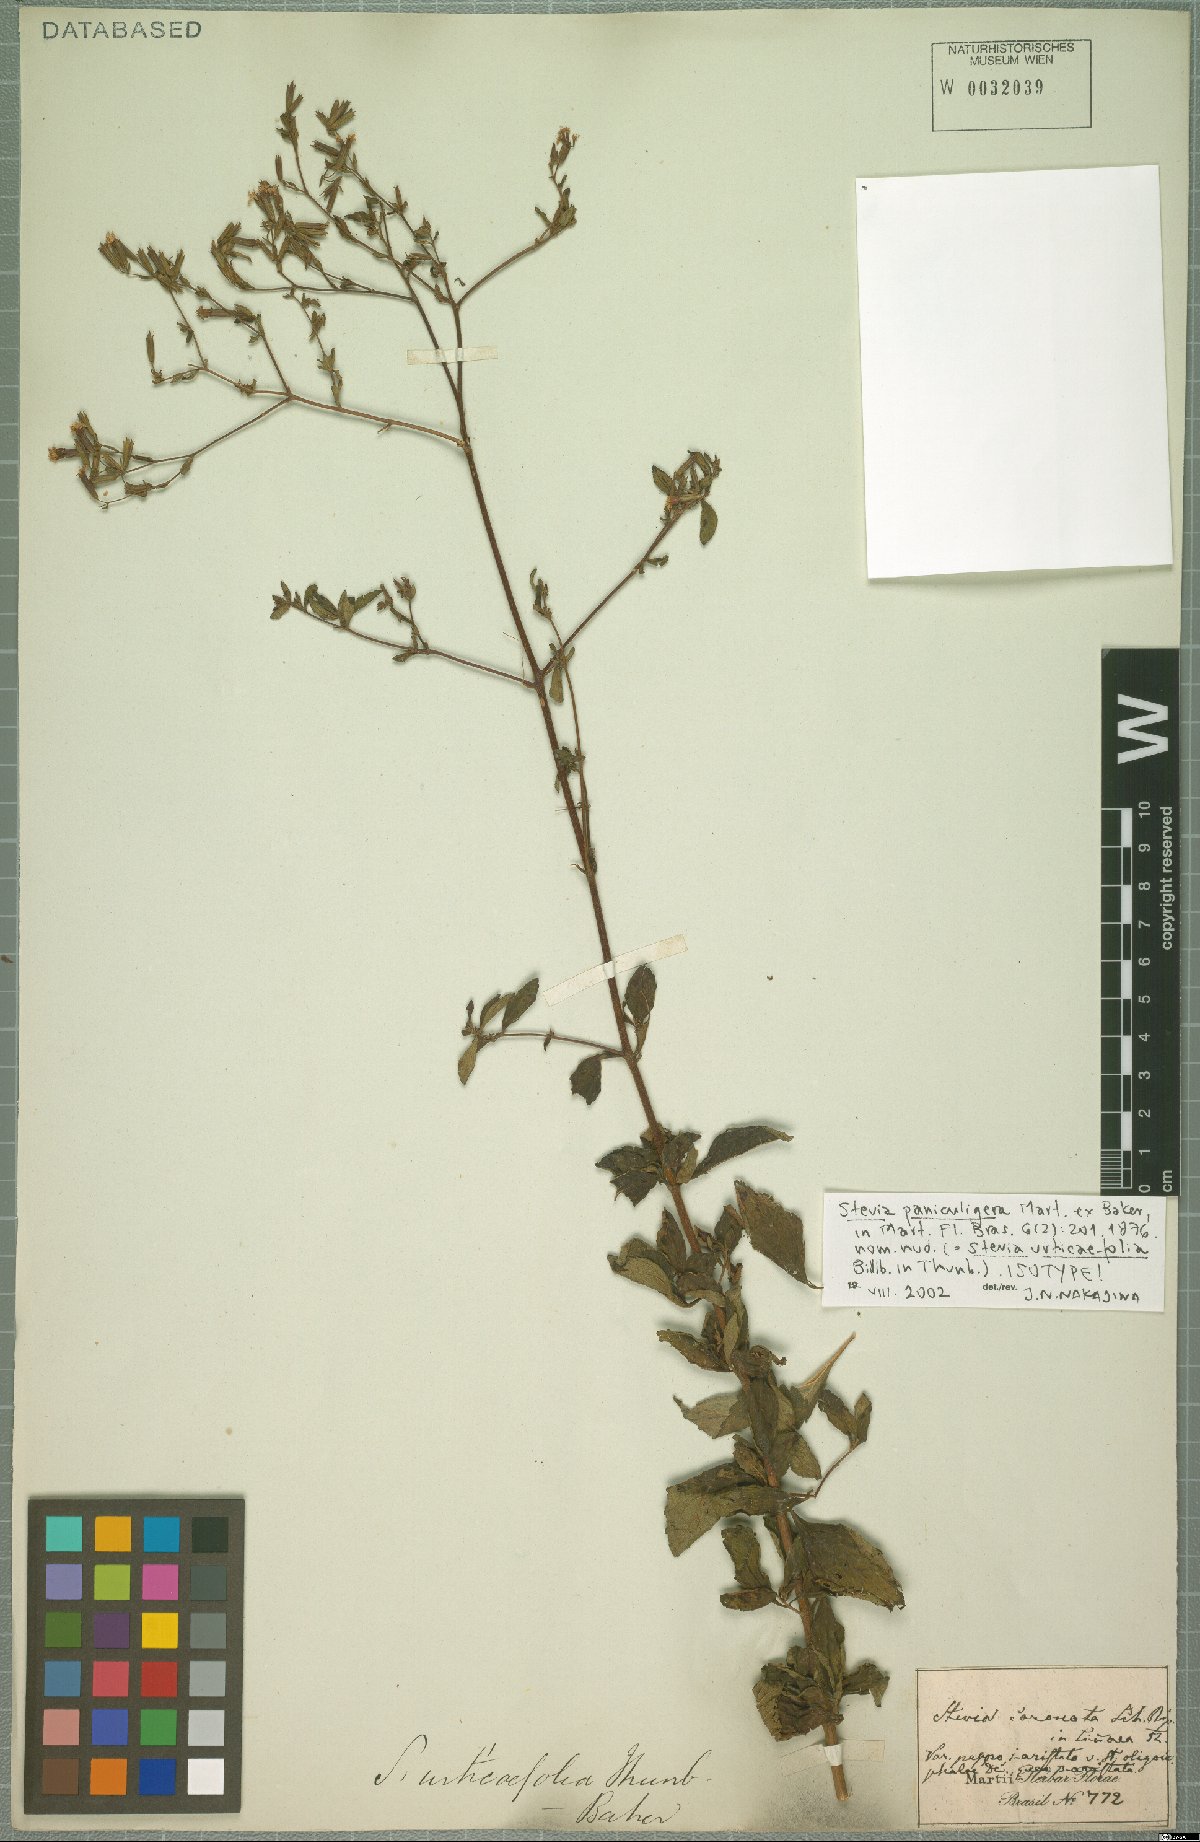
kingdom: Plantae
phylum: Tracheophyta
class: Magnoliopsida
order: Asterales
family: Asteraceae
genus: Stevia
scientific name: Stevia urticifolia
